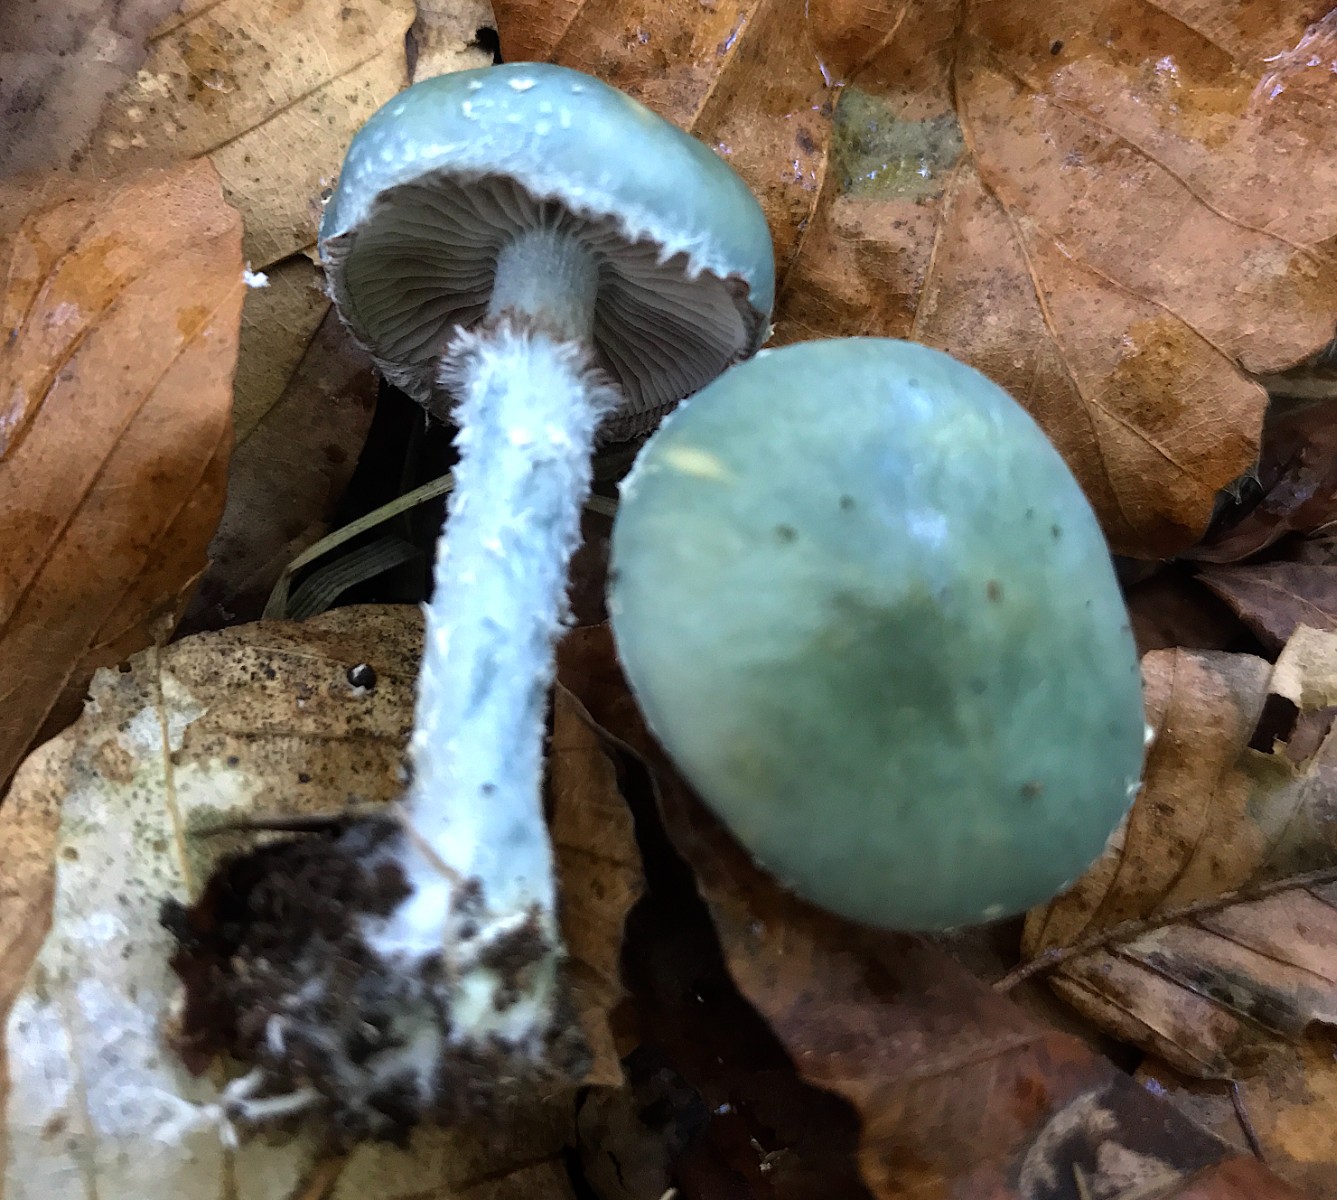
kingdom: Fungi
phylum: Basidiomycota
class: Agaricomycetes
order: Agaricales
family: Strophariaceae
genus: Stropharia
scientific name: Stropharia cyanea
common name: blågrøn bredblad
